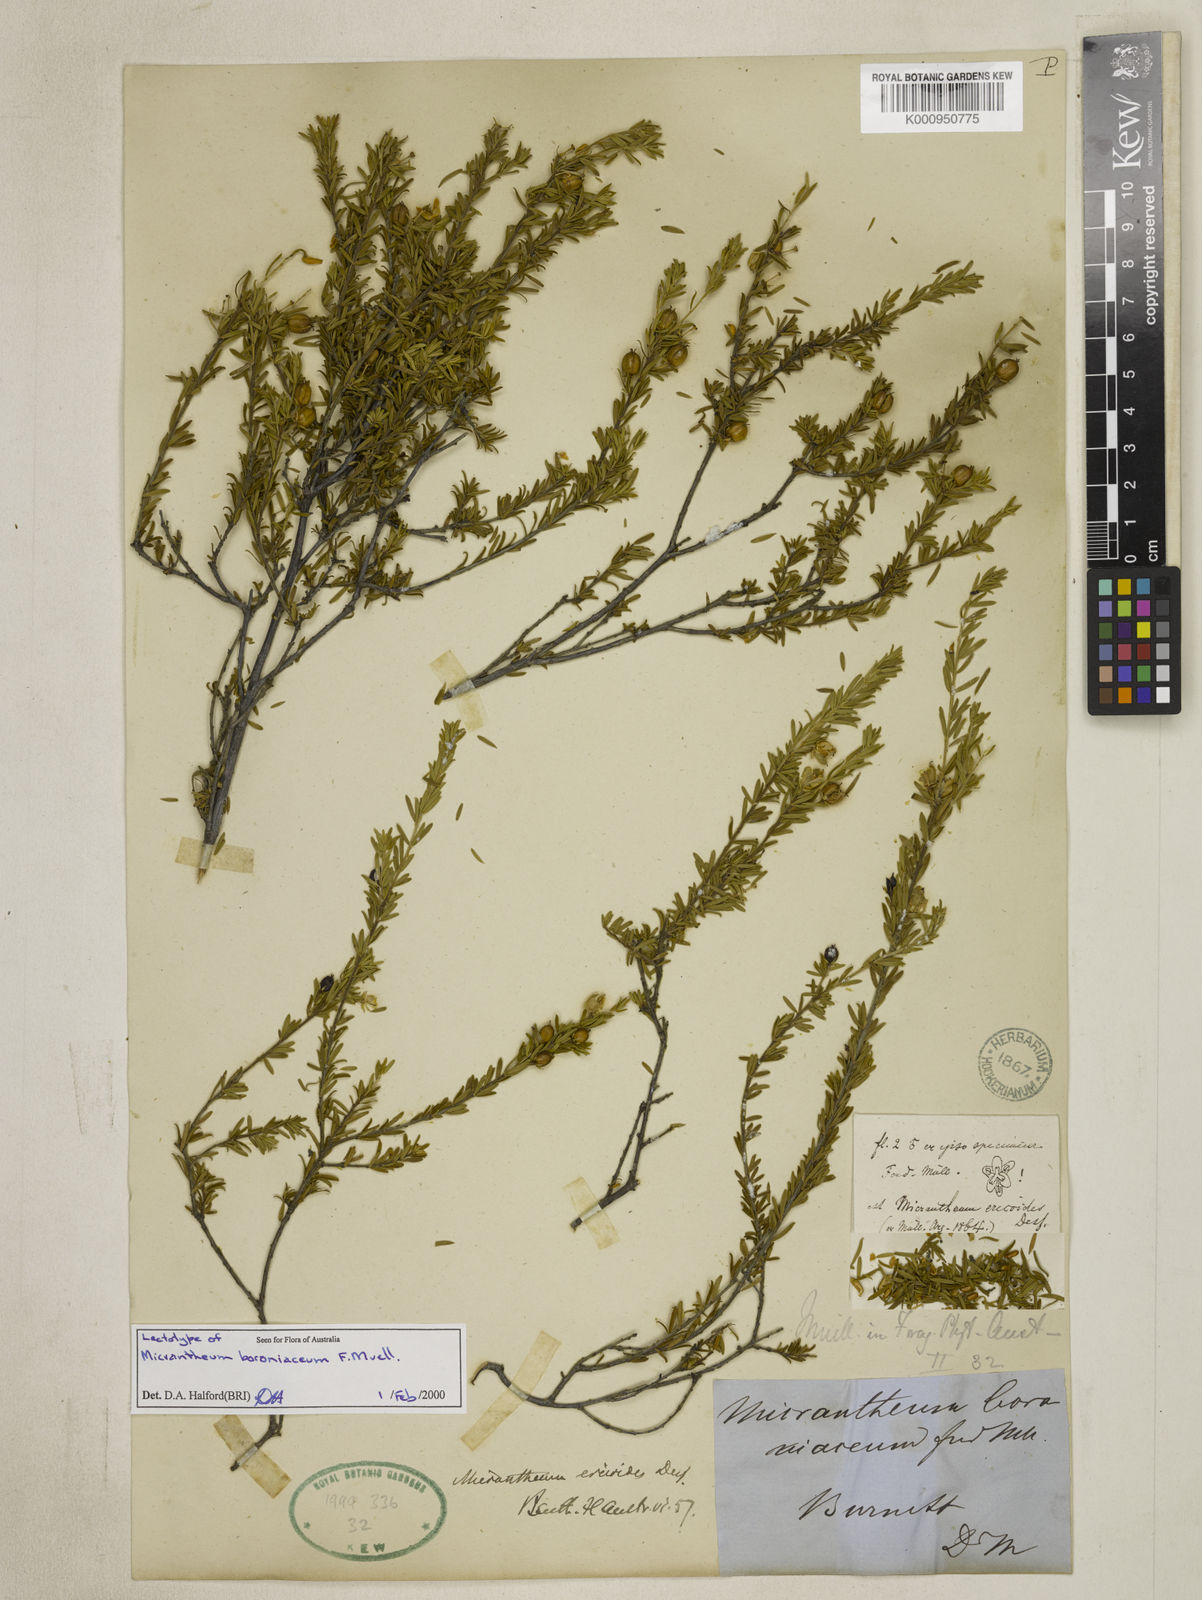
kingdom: Plantae
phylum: Tracheophyta
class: Magnoliopsida
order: Malpighiales
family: Picrodendraceae
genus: Micrantheum
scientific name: Micrantheum ericoides
